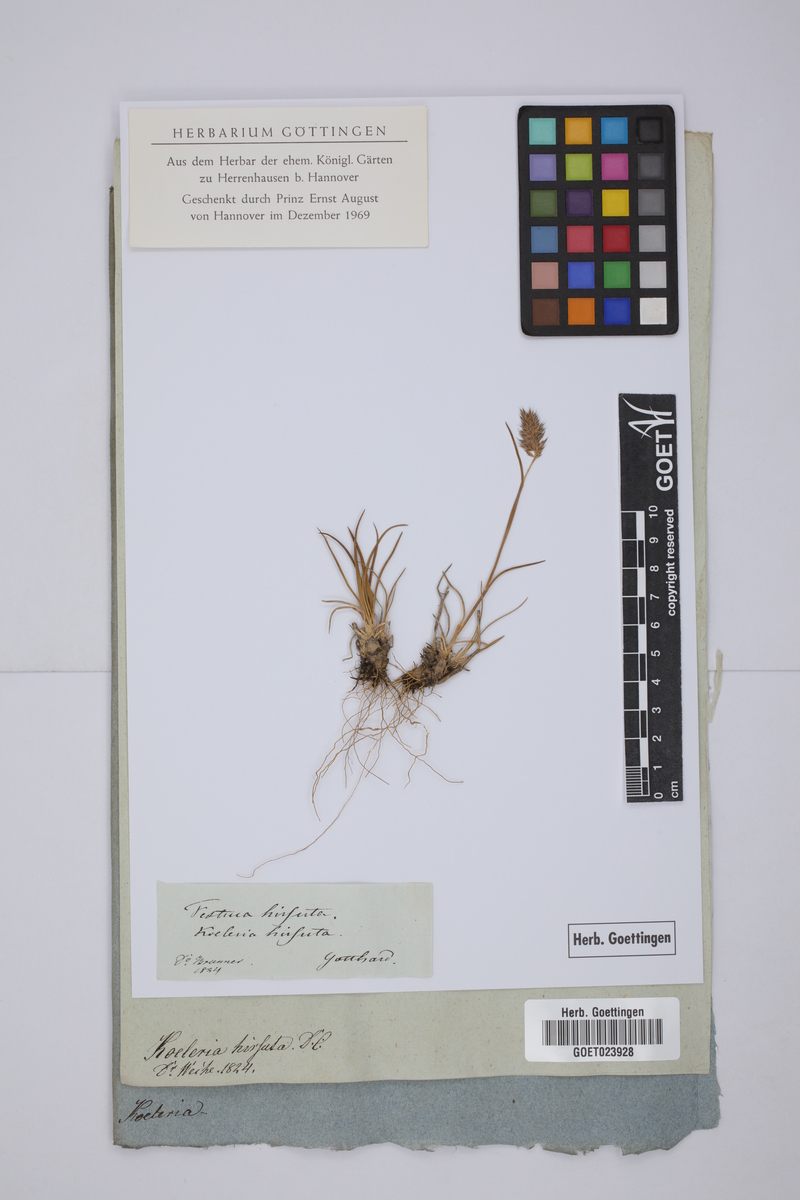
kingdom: Plantae
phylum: Tracheophyta
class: Liliopsida
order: Poales
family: Poaceae
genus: Koeleria
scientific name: Koeleria hirsuta
